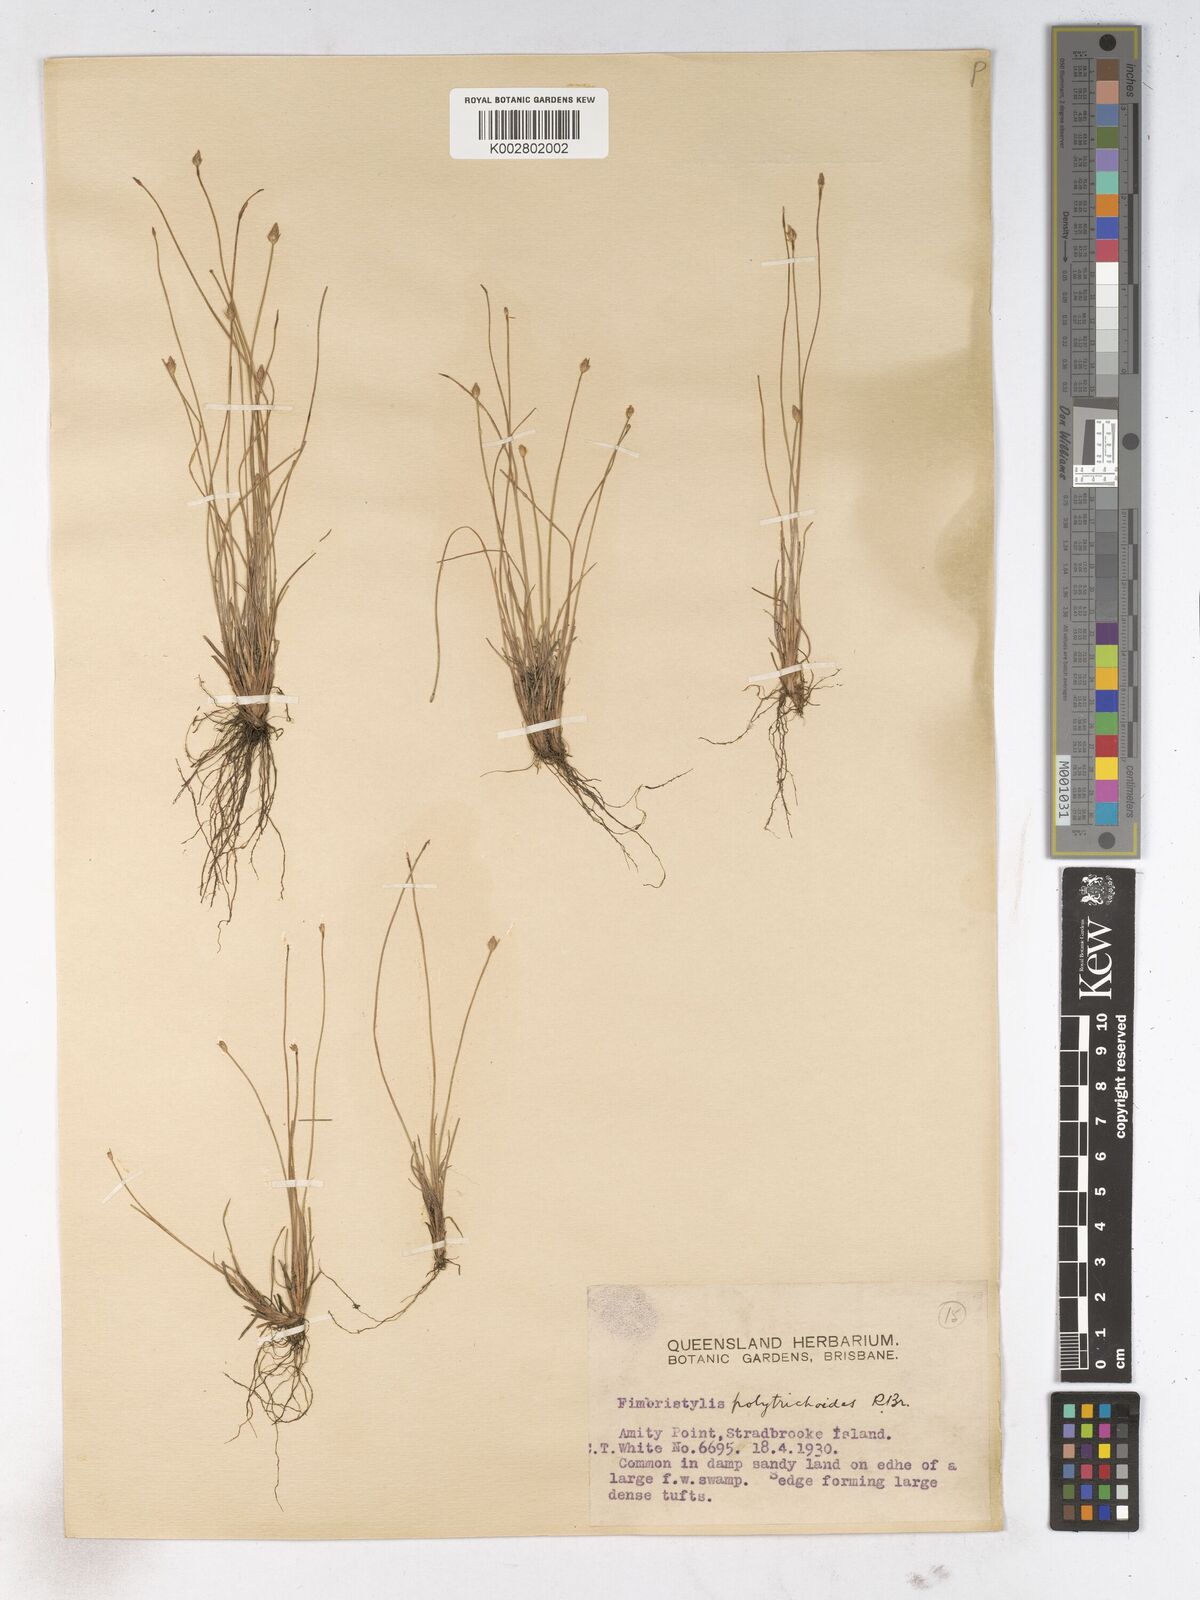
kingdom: Plantae
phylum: Tracheophyta
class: Liliopsida
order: Poales
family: Cyperaceae
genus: Fimbristylis
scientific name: Fimbristylis polytrichoides
